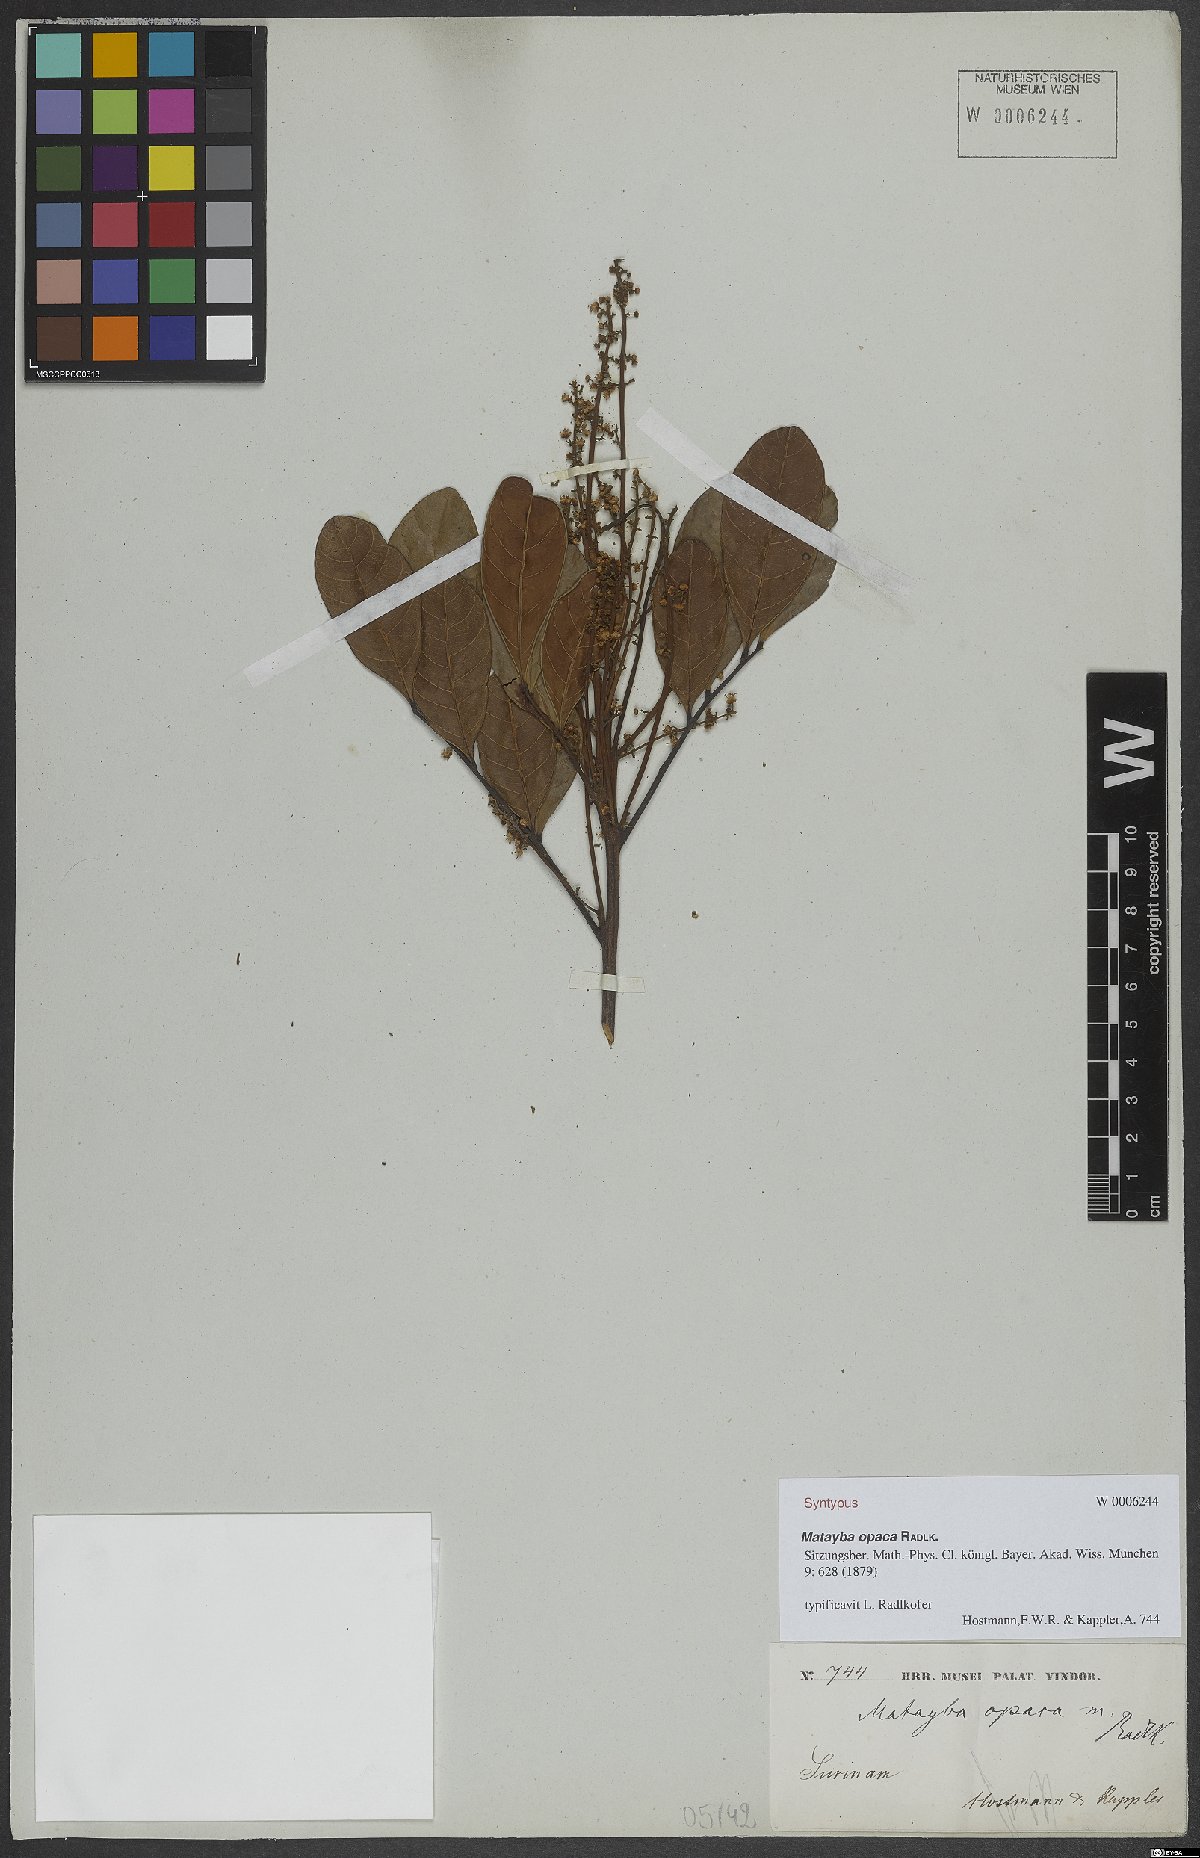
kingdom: Plantae
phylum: Tracheophyta
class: Magnoliopsida
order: Sapindales
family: Sapindaceae
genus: Matayba
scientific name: Matayba opaca
